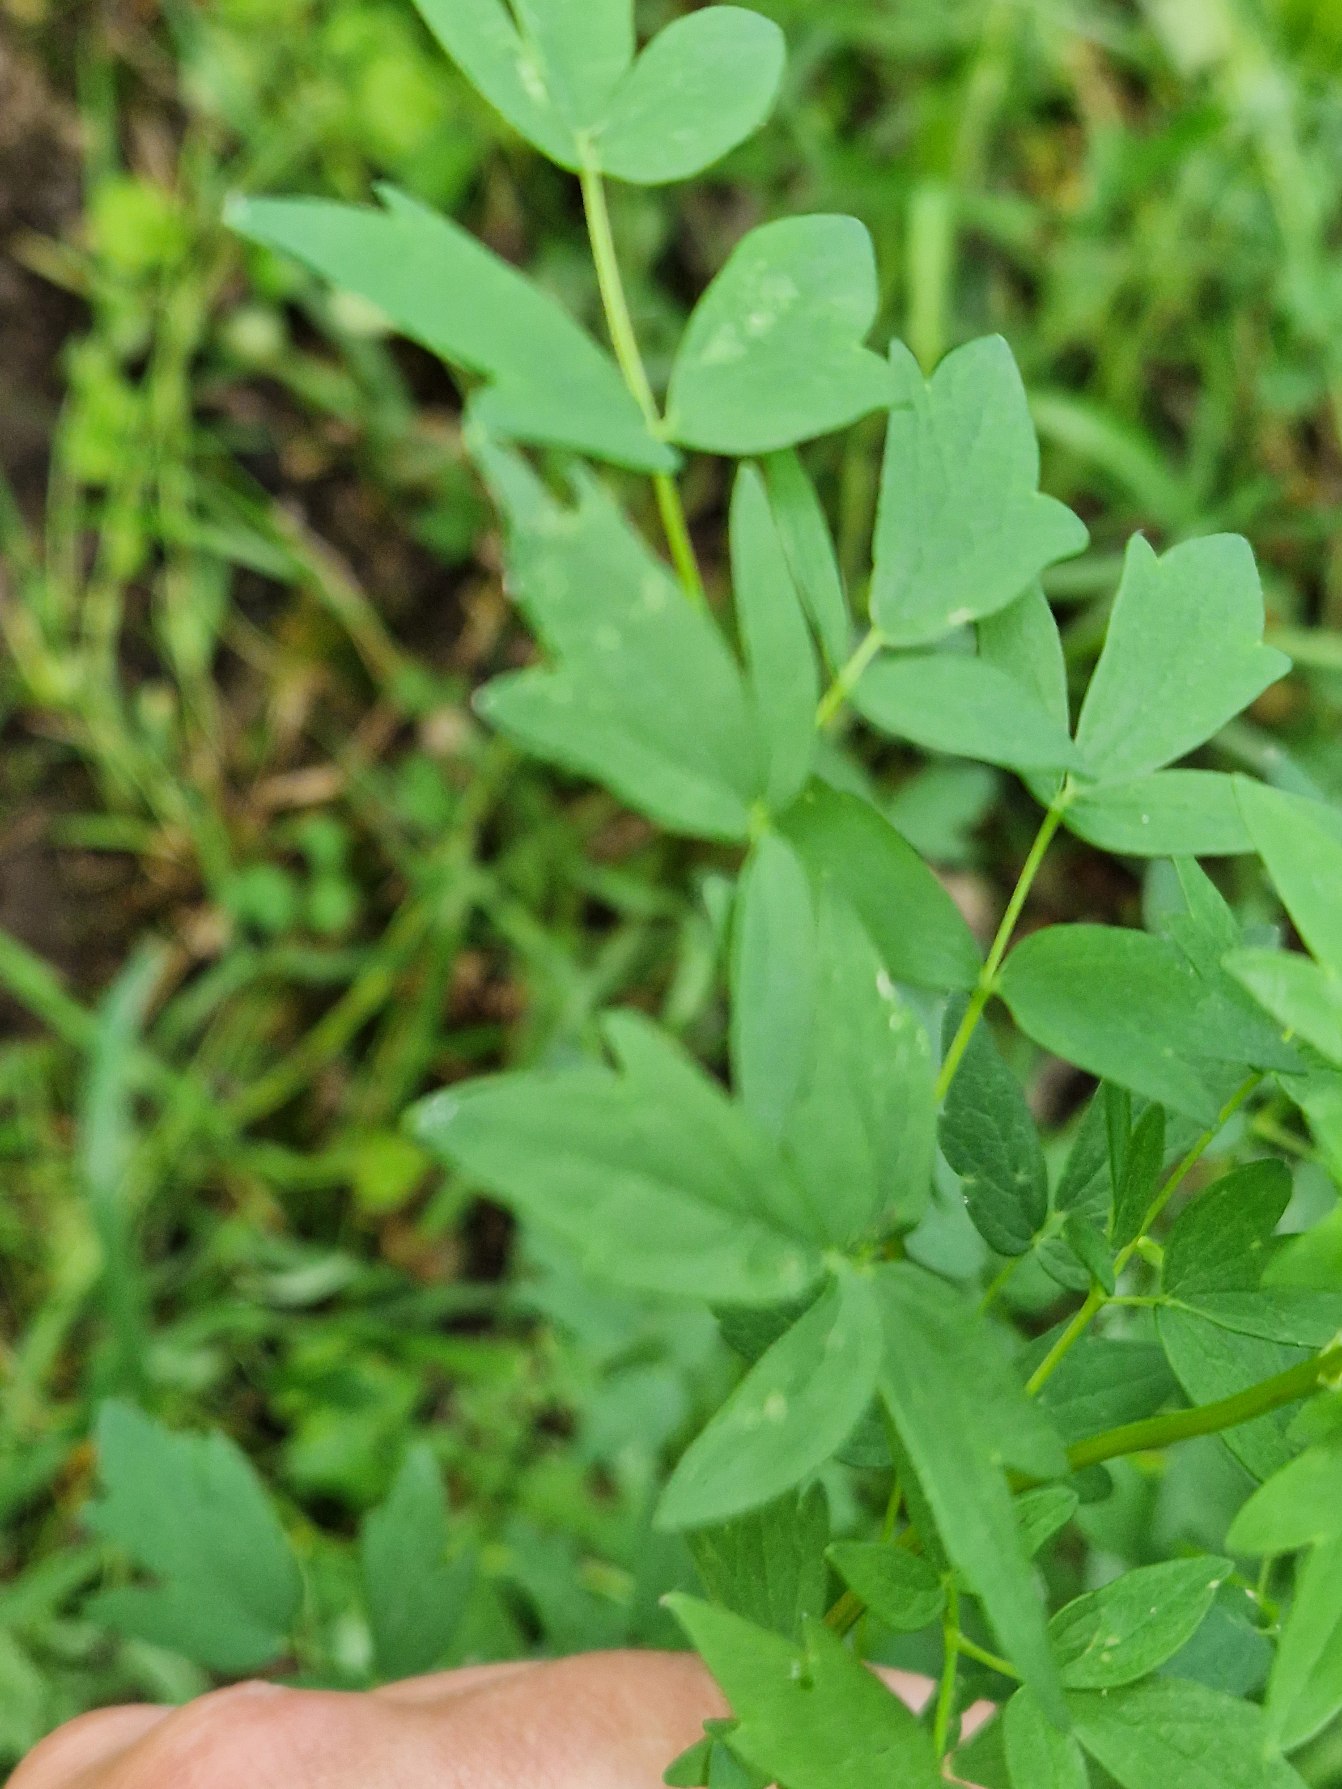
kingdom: Plantae
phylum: Tracheophyta
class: Magnoliopsida
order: Ranunculales
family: Ranunculaceae
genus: Thalictrum
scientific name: Thalictrum flavum
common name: Gul frøstjerne
